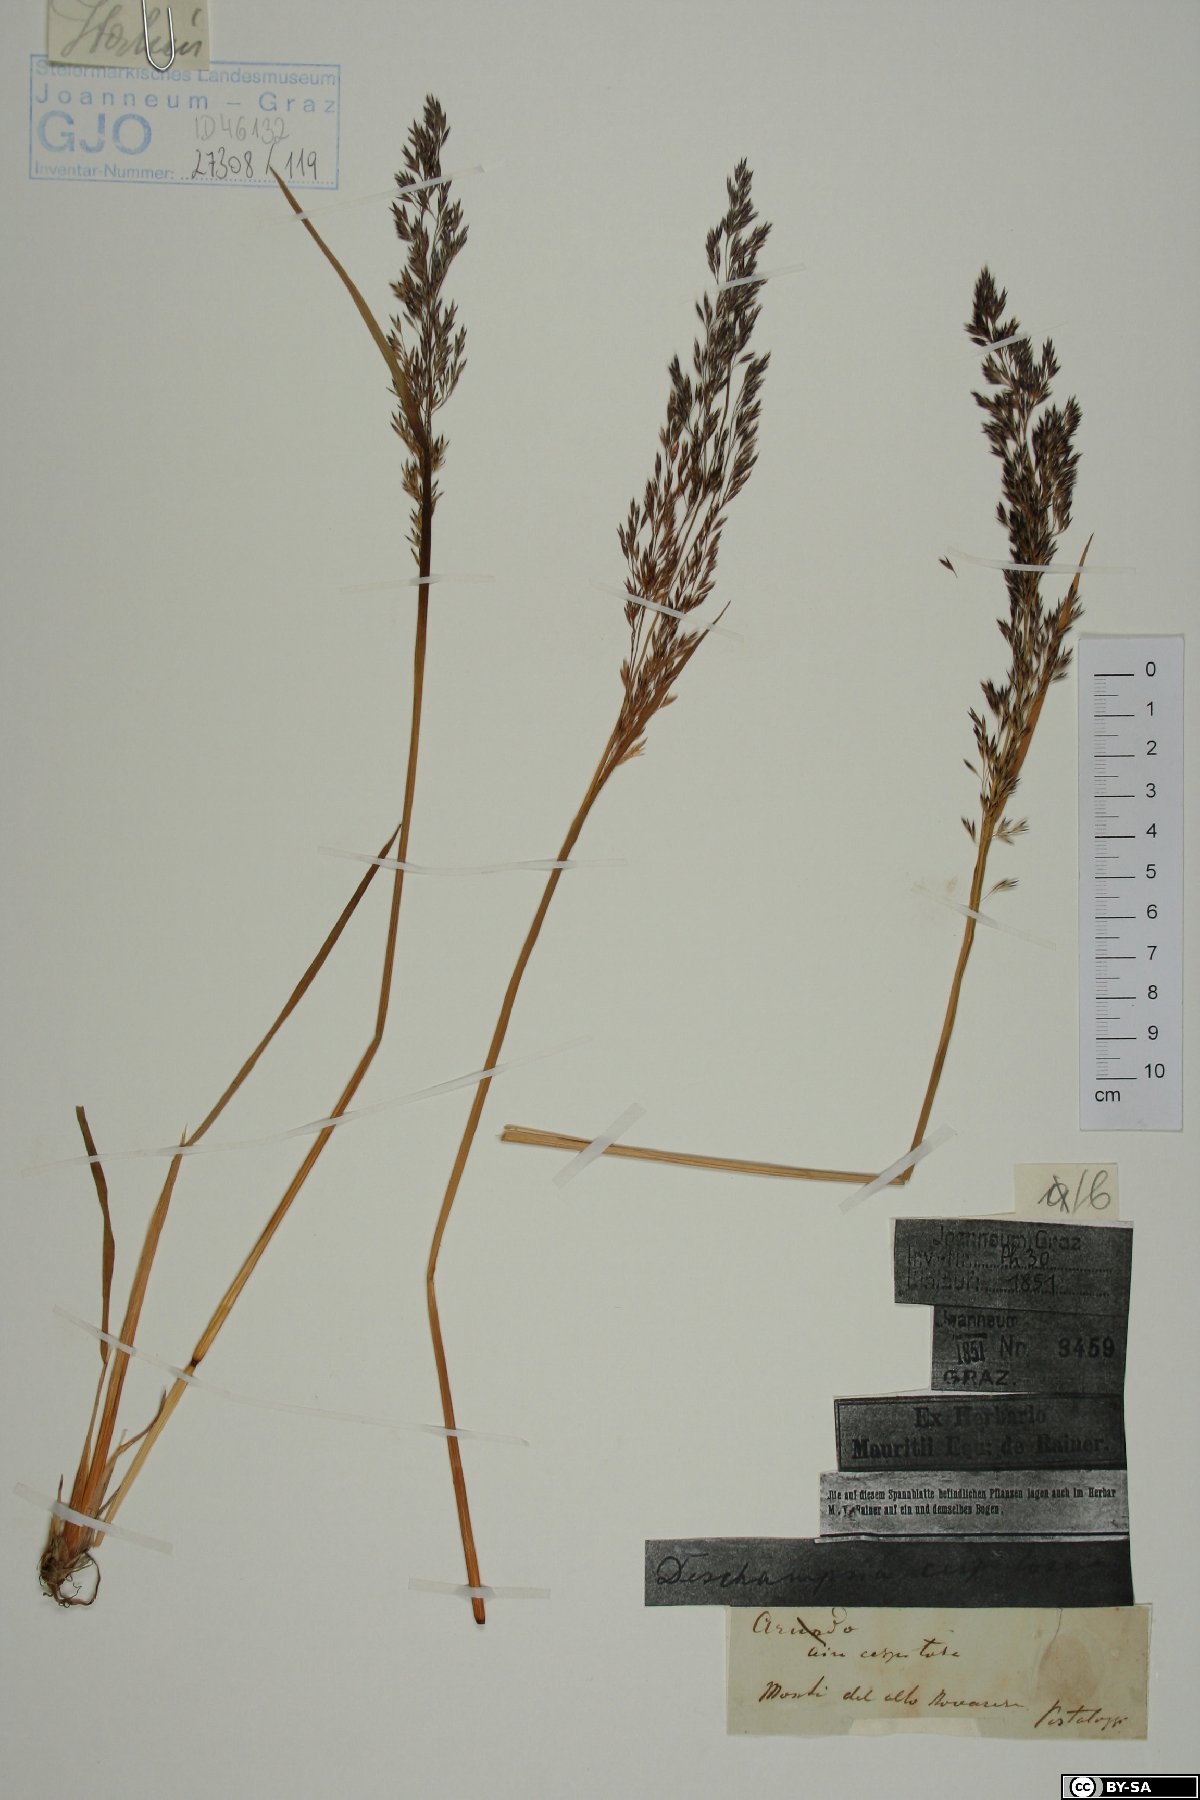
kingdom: Plantae
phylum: Tracheophyta
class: Liliopsida
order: Poales
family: Poaceae
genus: Deschampsia
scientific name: Deschampsia cespitosa
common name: Tufted hair-grass
